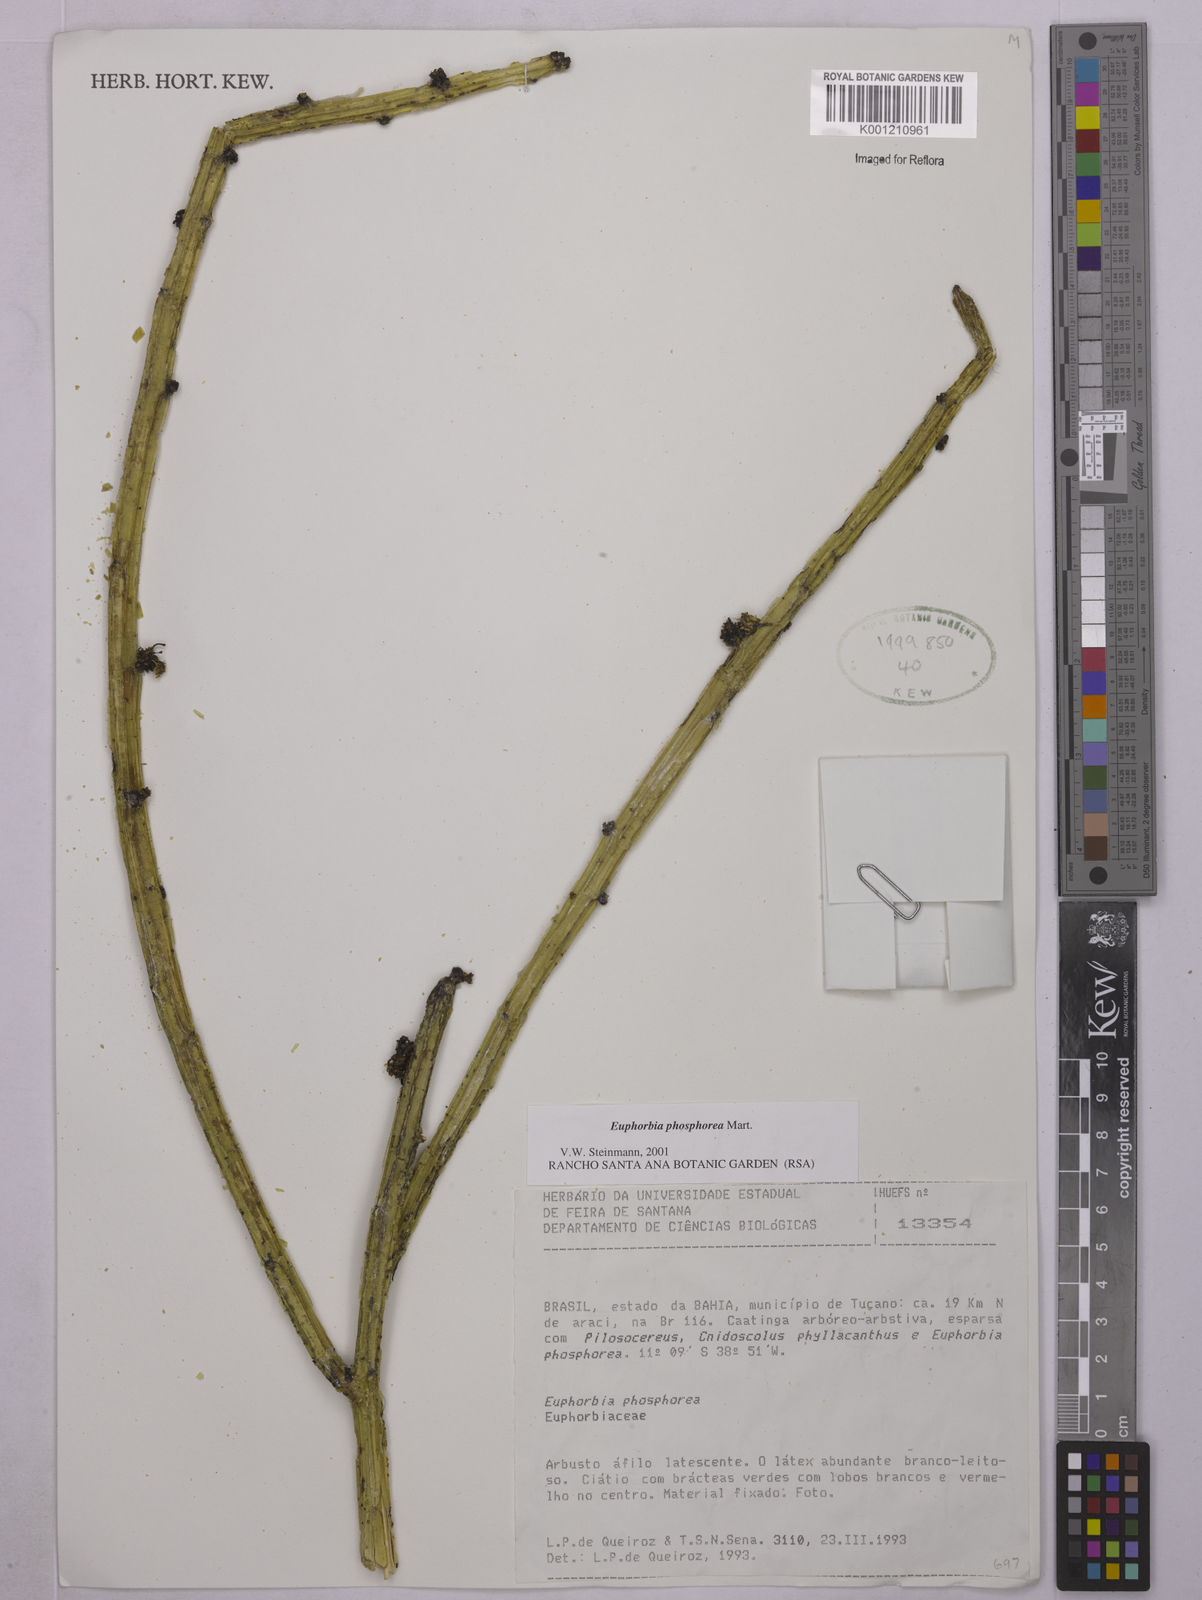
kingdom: Plantae
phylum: Tracheophyta
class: Magnoliopsida
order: Malpighiales
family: Euphorbiaceae
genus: Euphorbia
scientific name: Euphorbia phosphorea
